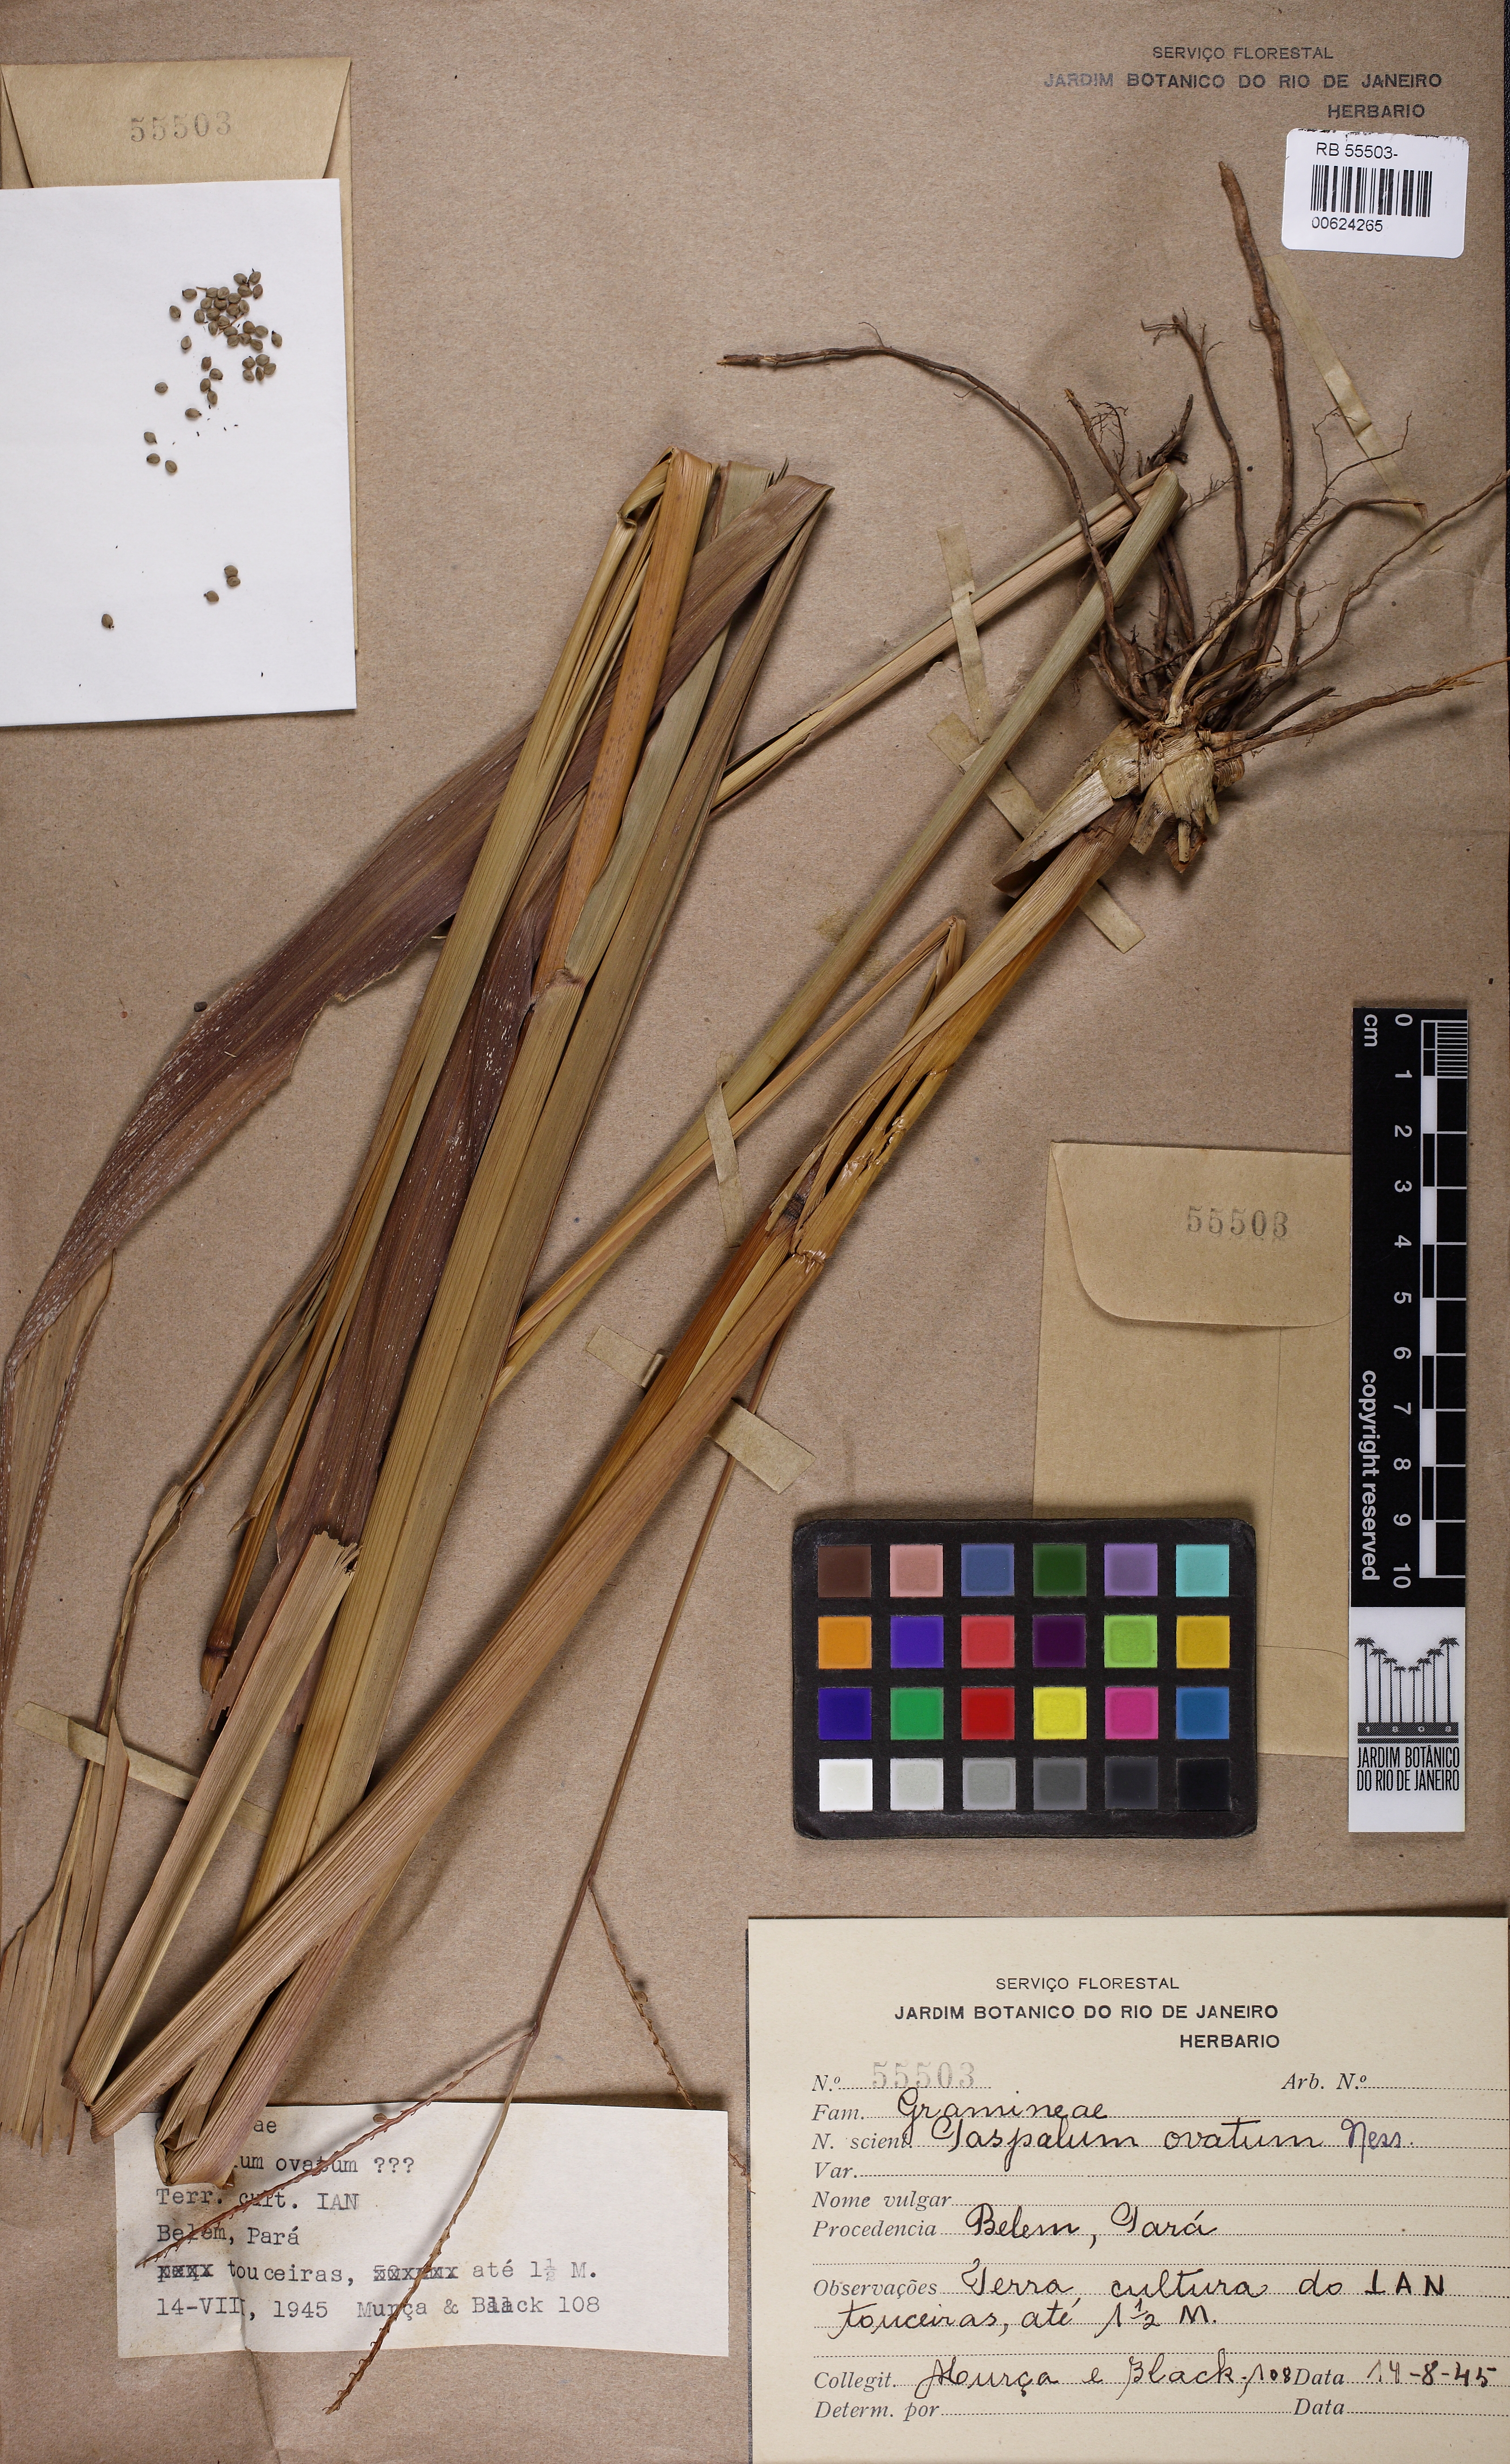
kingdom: Plantae
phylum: Tracheophyta
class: Liliopsida
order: Poales
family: Poaceae
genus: Paspalum
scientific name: Paspalum dilatatum
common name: Dallisgrass
